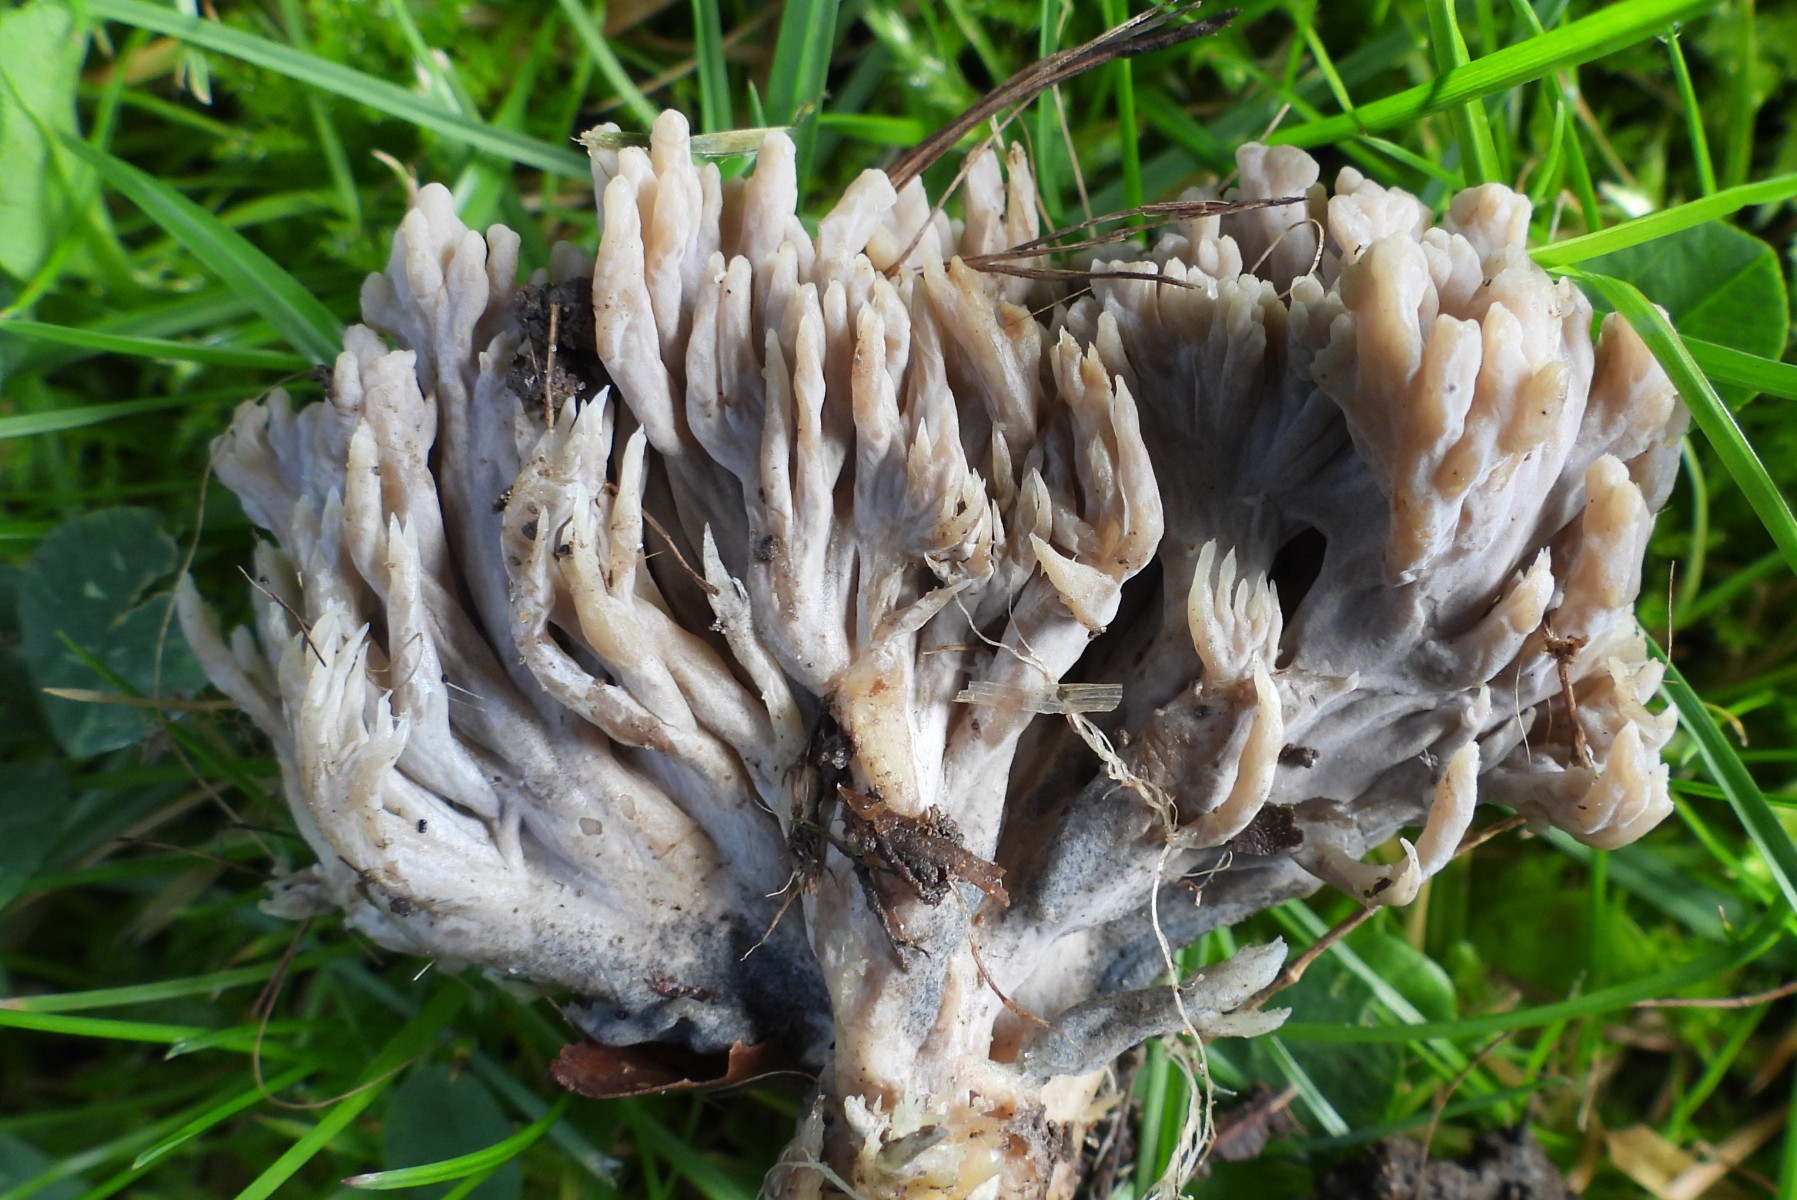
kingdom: Fungi
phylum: Ascomycota
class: Sordariomycetes
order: Sordariales
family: Helminthosphaeriaceae
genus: Helminthosphaeria
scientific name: Helminthosphaeria clavariarum
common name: trold-svampesnyltekerne
